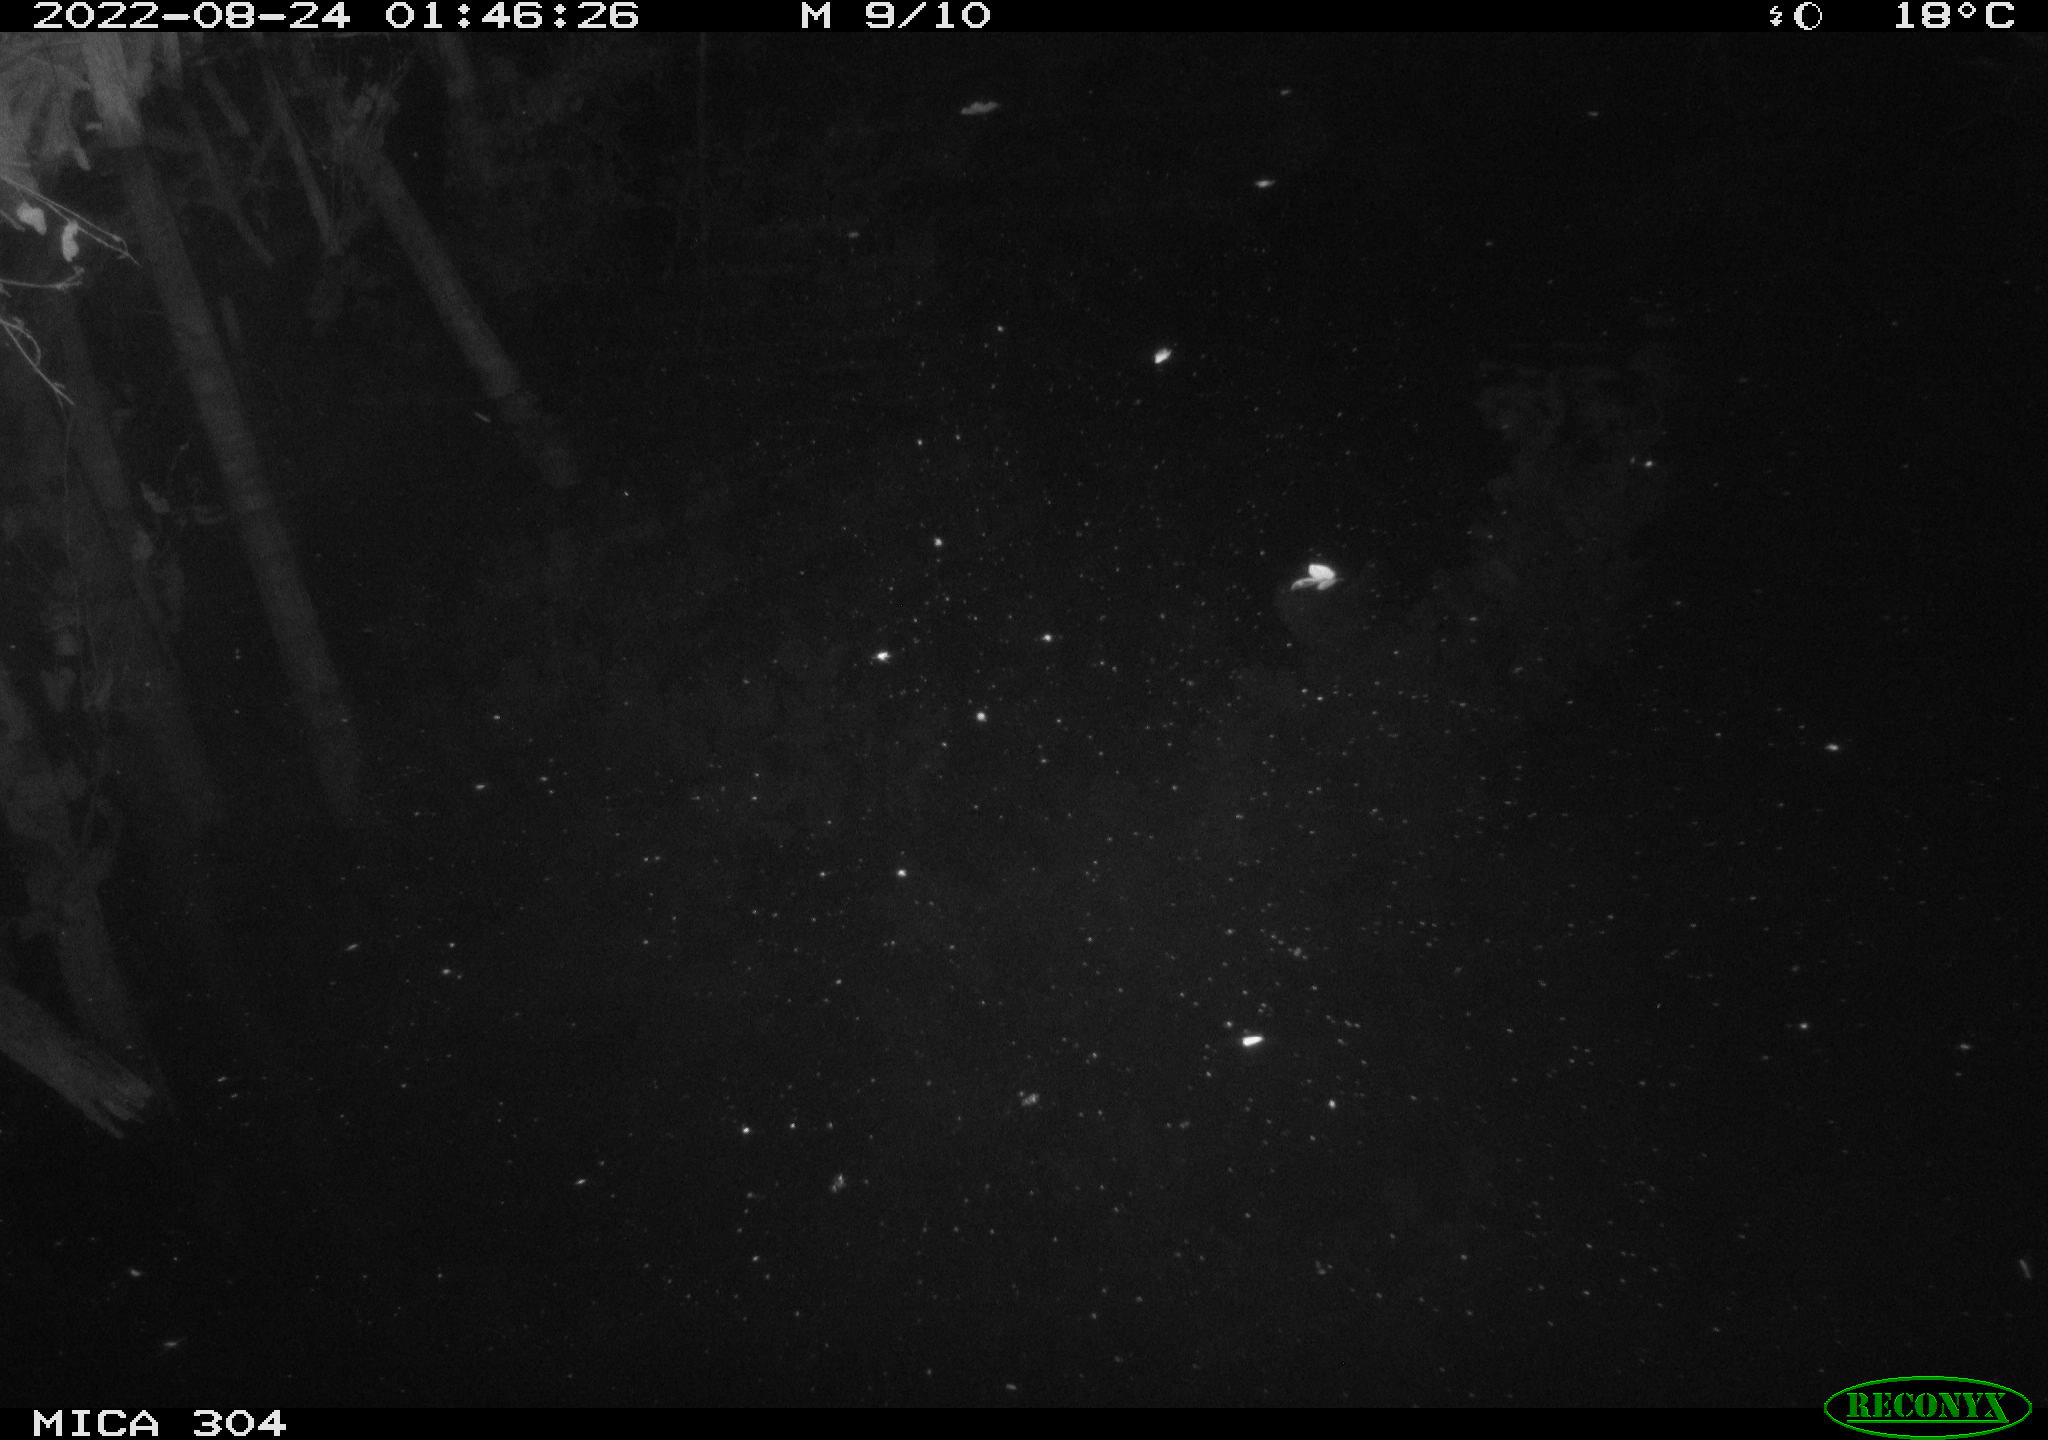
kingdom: Animalia
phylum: Chordata
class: Mammalia
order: Rodentia
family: Muridae
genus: Rattus
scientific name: Rattus norvegicus
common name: Brown rat
